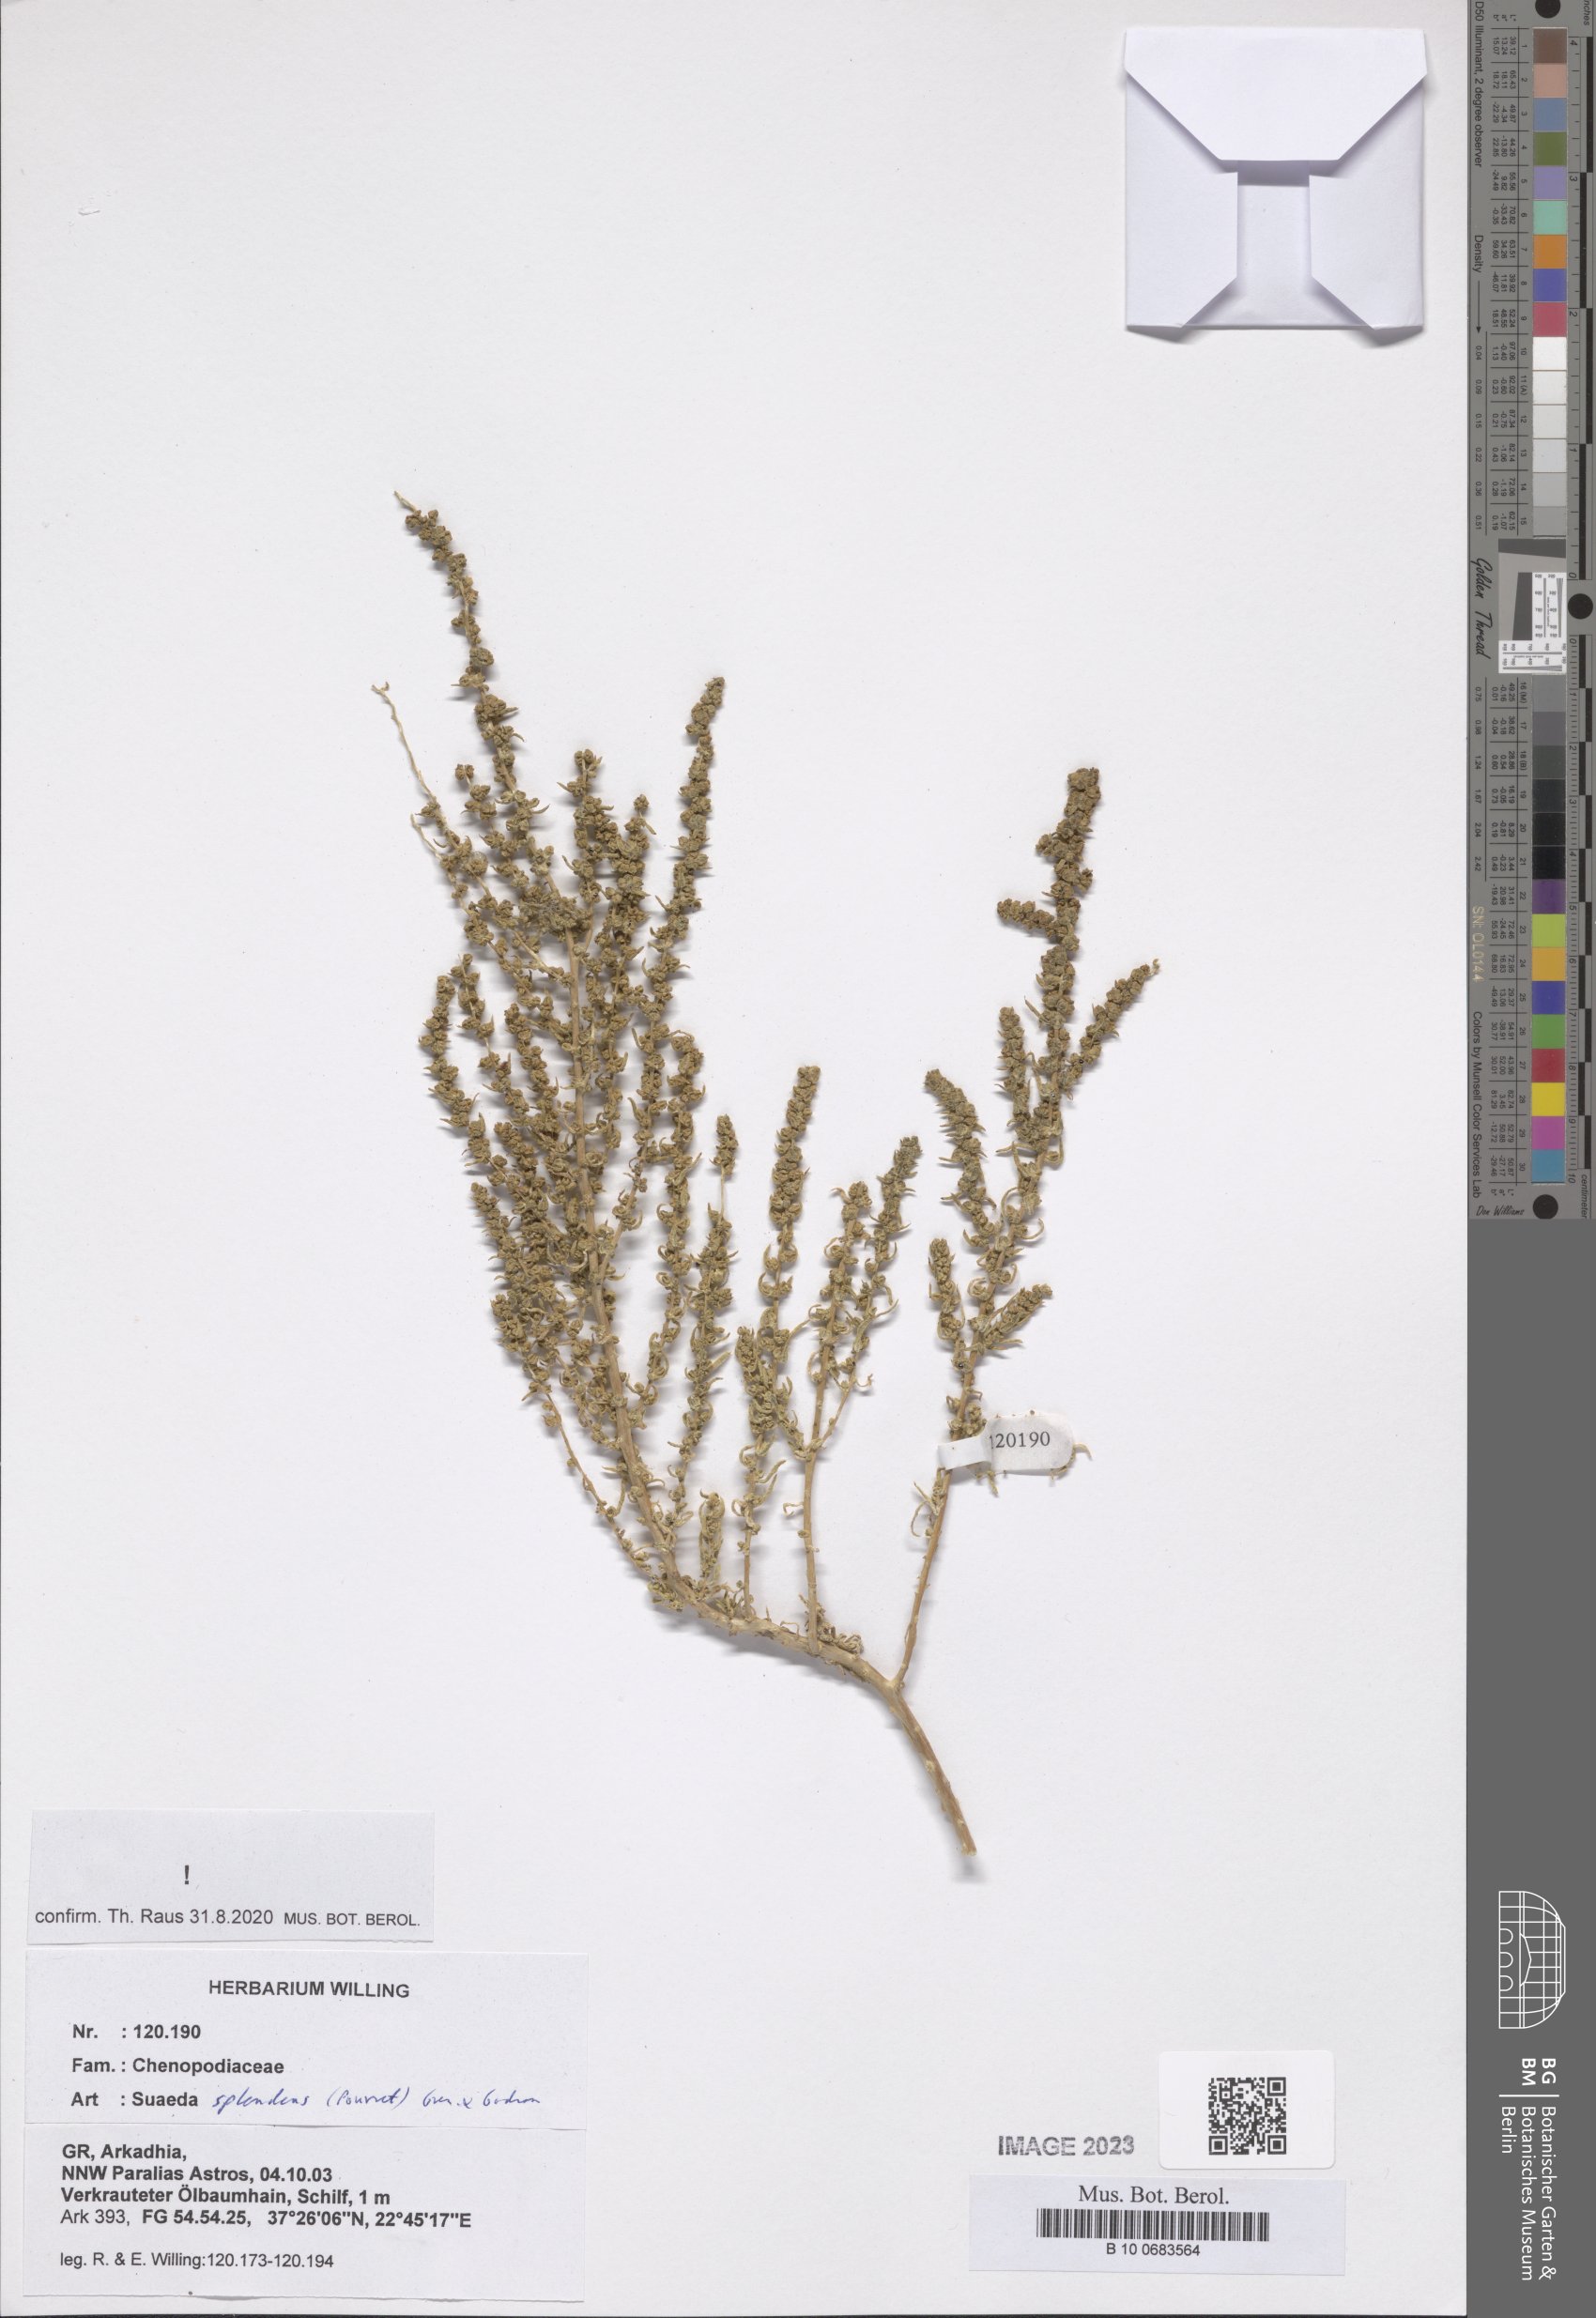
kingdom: Plantae
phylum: Tracheophyta
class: Magnoliopsida
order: Caryophyllales
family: Amaranthaceae
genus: Suaeda
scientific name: Suaeda splendens
